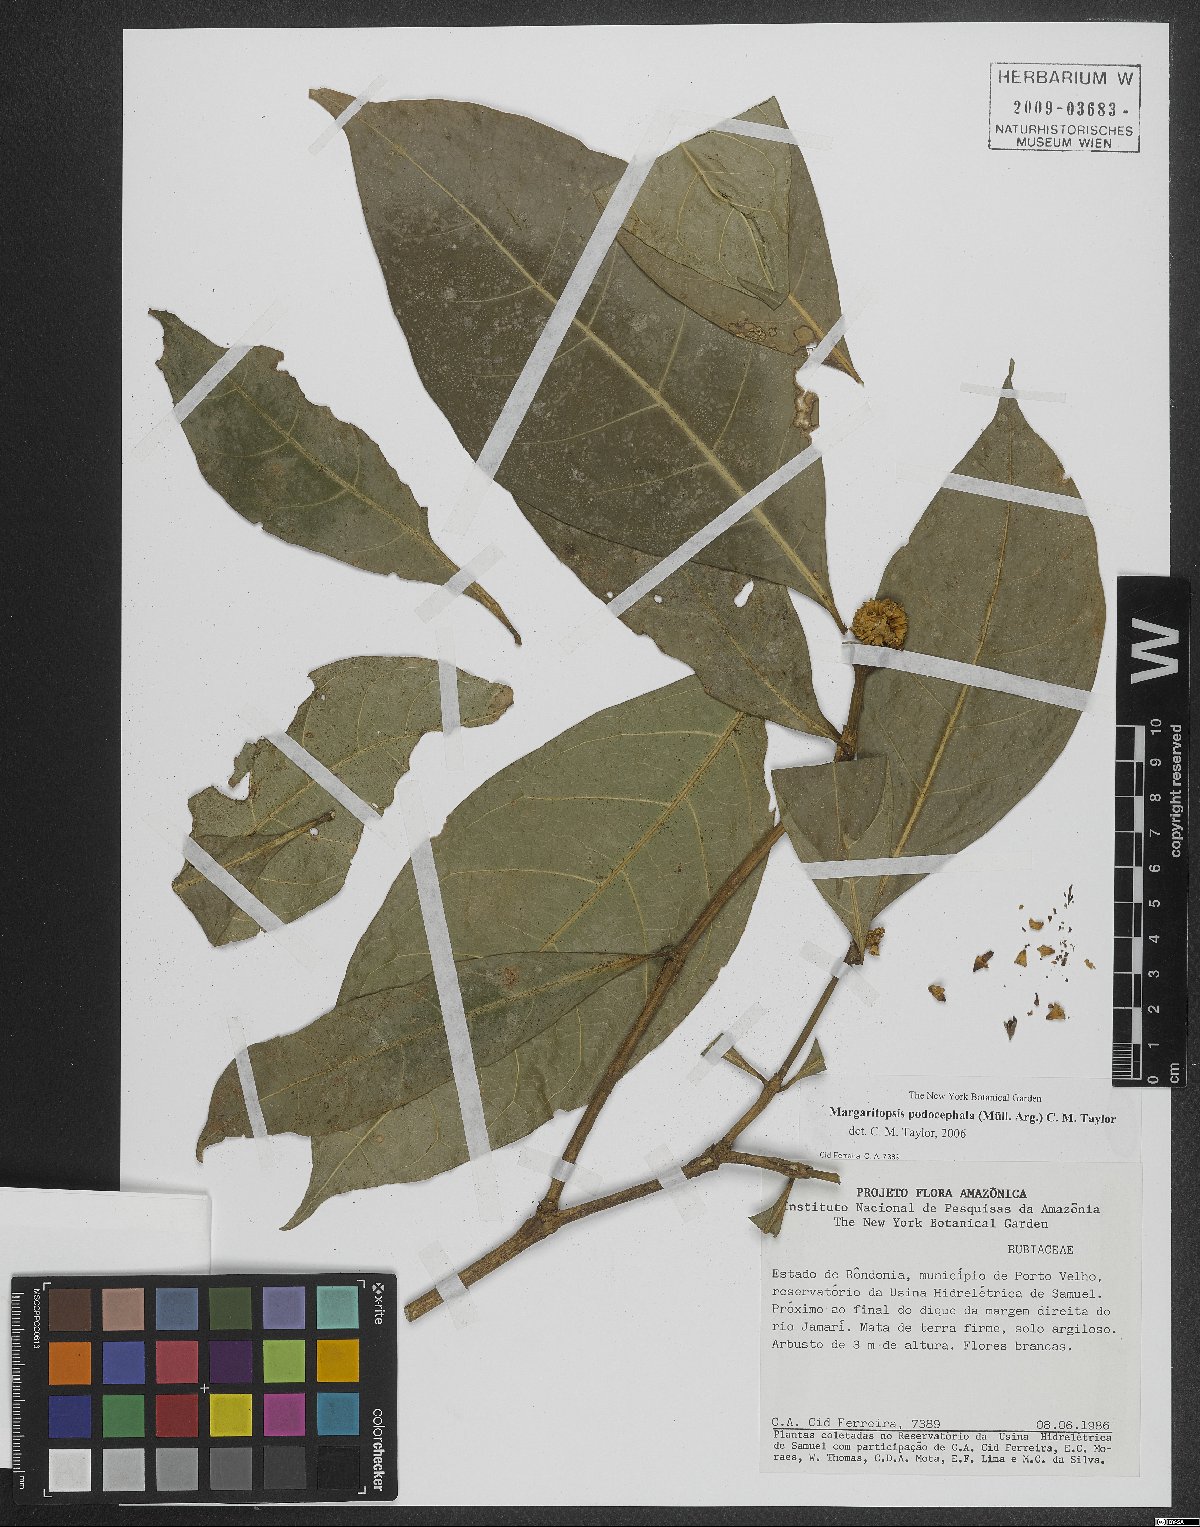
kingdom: Plantae
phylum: Tracheophyta
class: Magnoliopsida
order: Gentianales
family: Rubiaceae
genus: Eumachia
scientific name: Eumachia podocephala
